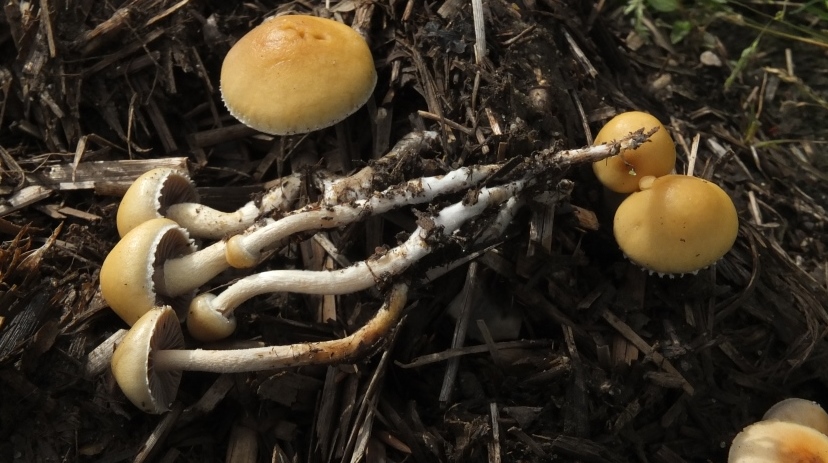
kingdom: Fungi
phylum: Basidiomycota
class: Agaricomycetes
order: Agaricales
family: Strophariaceae
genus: Deconica
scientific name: Deconica merdaria
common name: møg-stråhat
